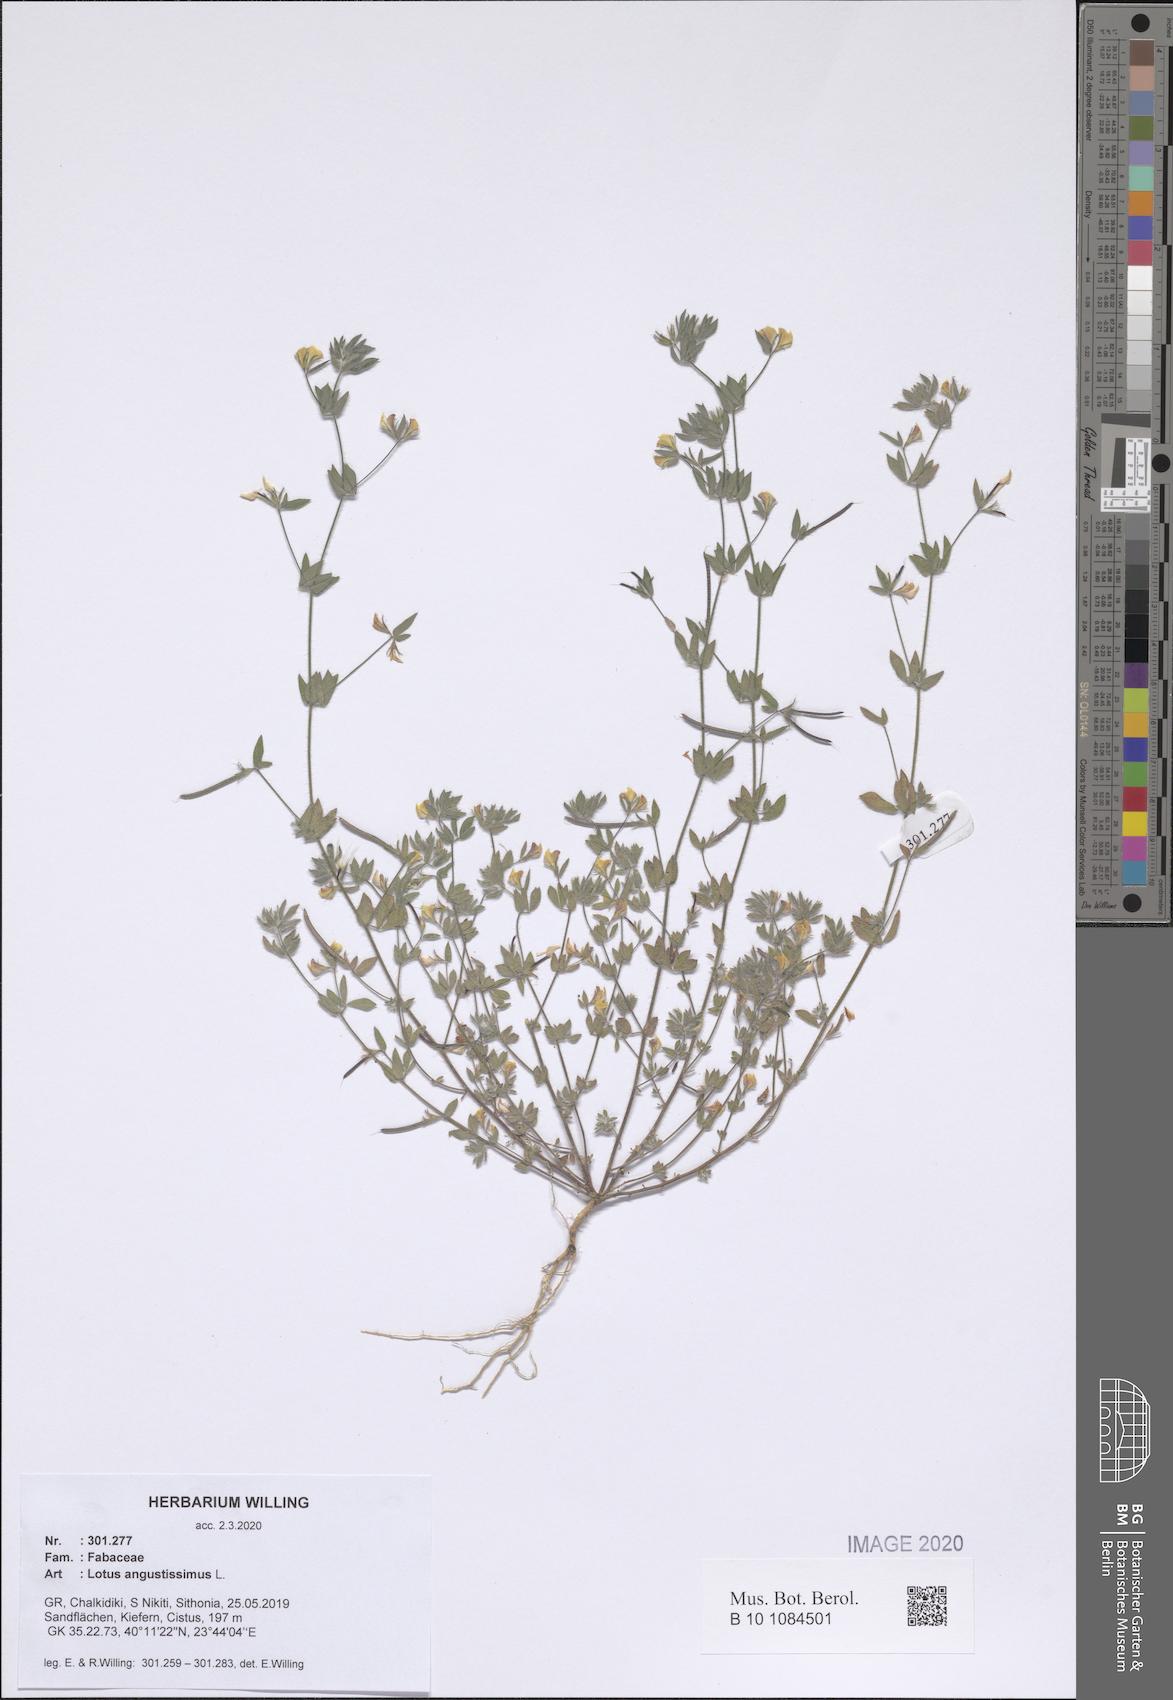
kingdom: Plantae
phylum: Tracheophyta
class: Magnoliopsida
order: Fabales
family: Fabaceae
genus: Lotus
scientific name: Lotus angustissimus
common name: Slender bird's-foot trefoil
